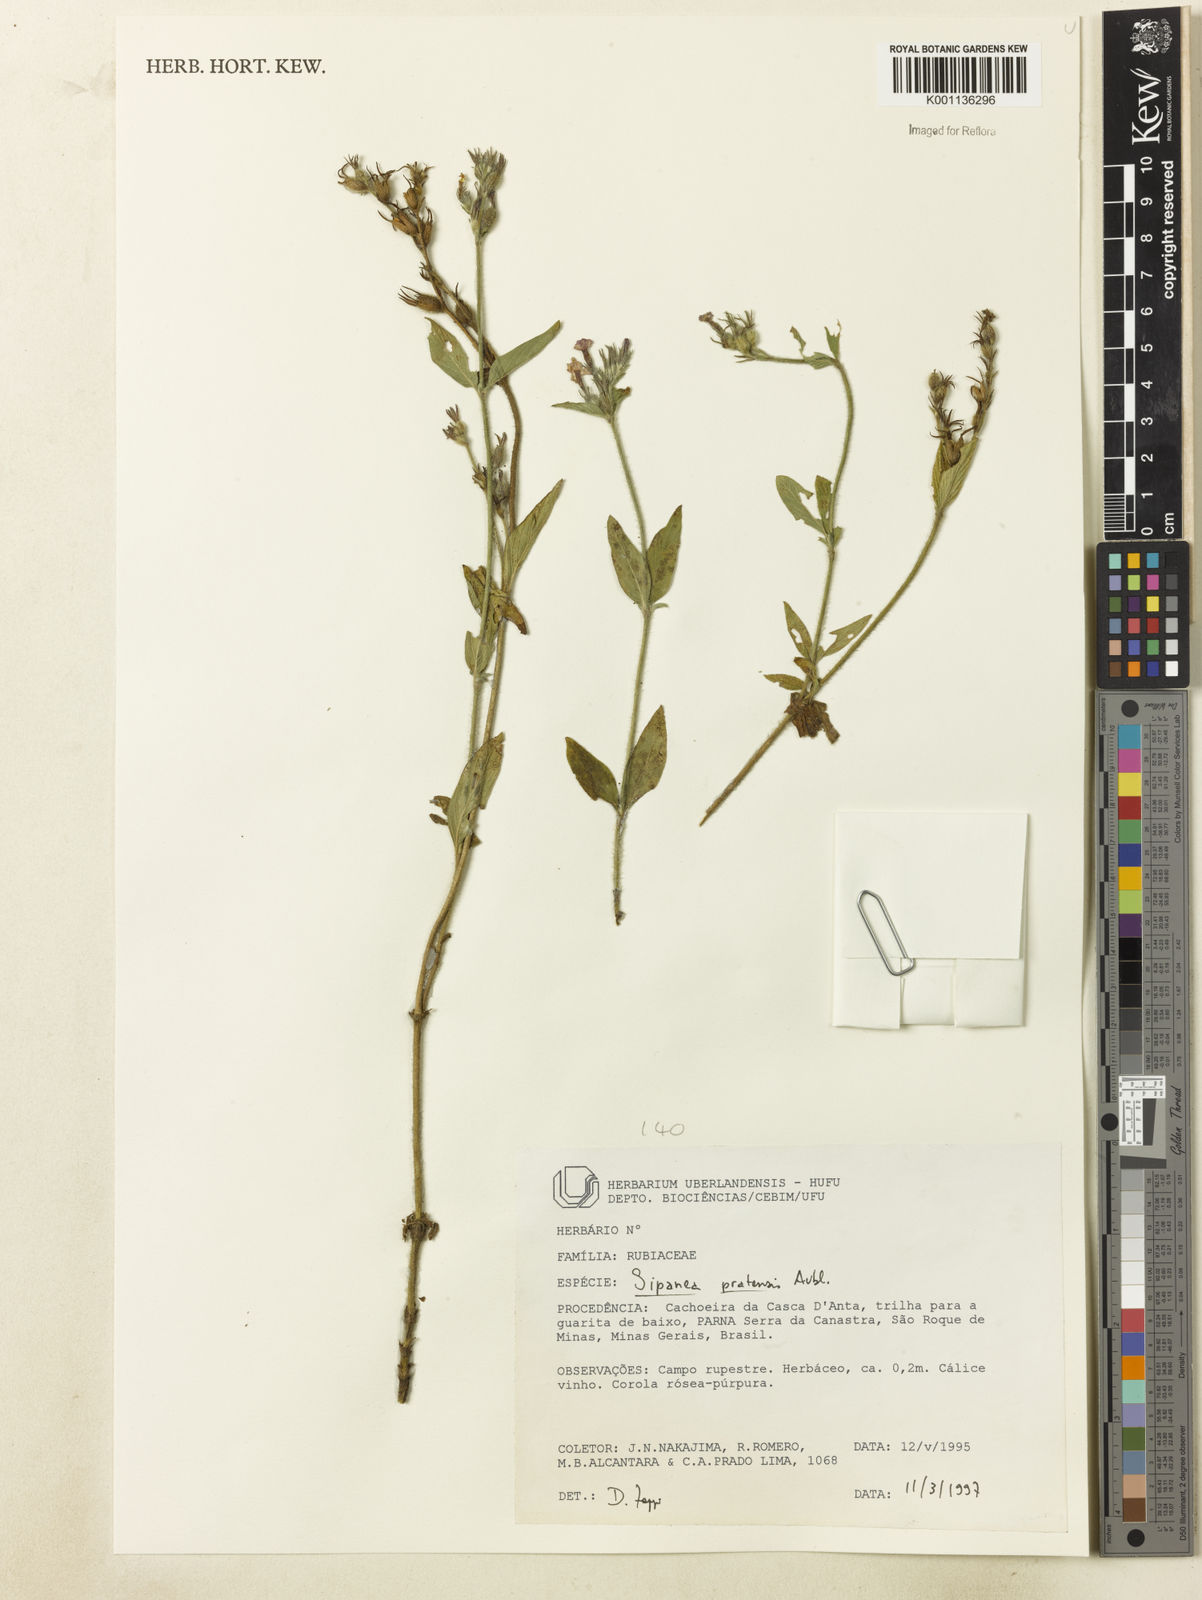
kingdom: Plantae
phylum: Tracheophyta
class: Magnoliopsida
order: Gentianales
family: Rubiaceae
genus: Sipanea
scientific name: Sipanea pratensis
